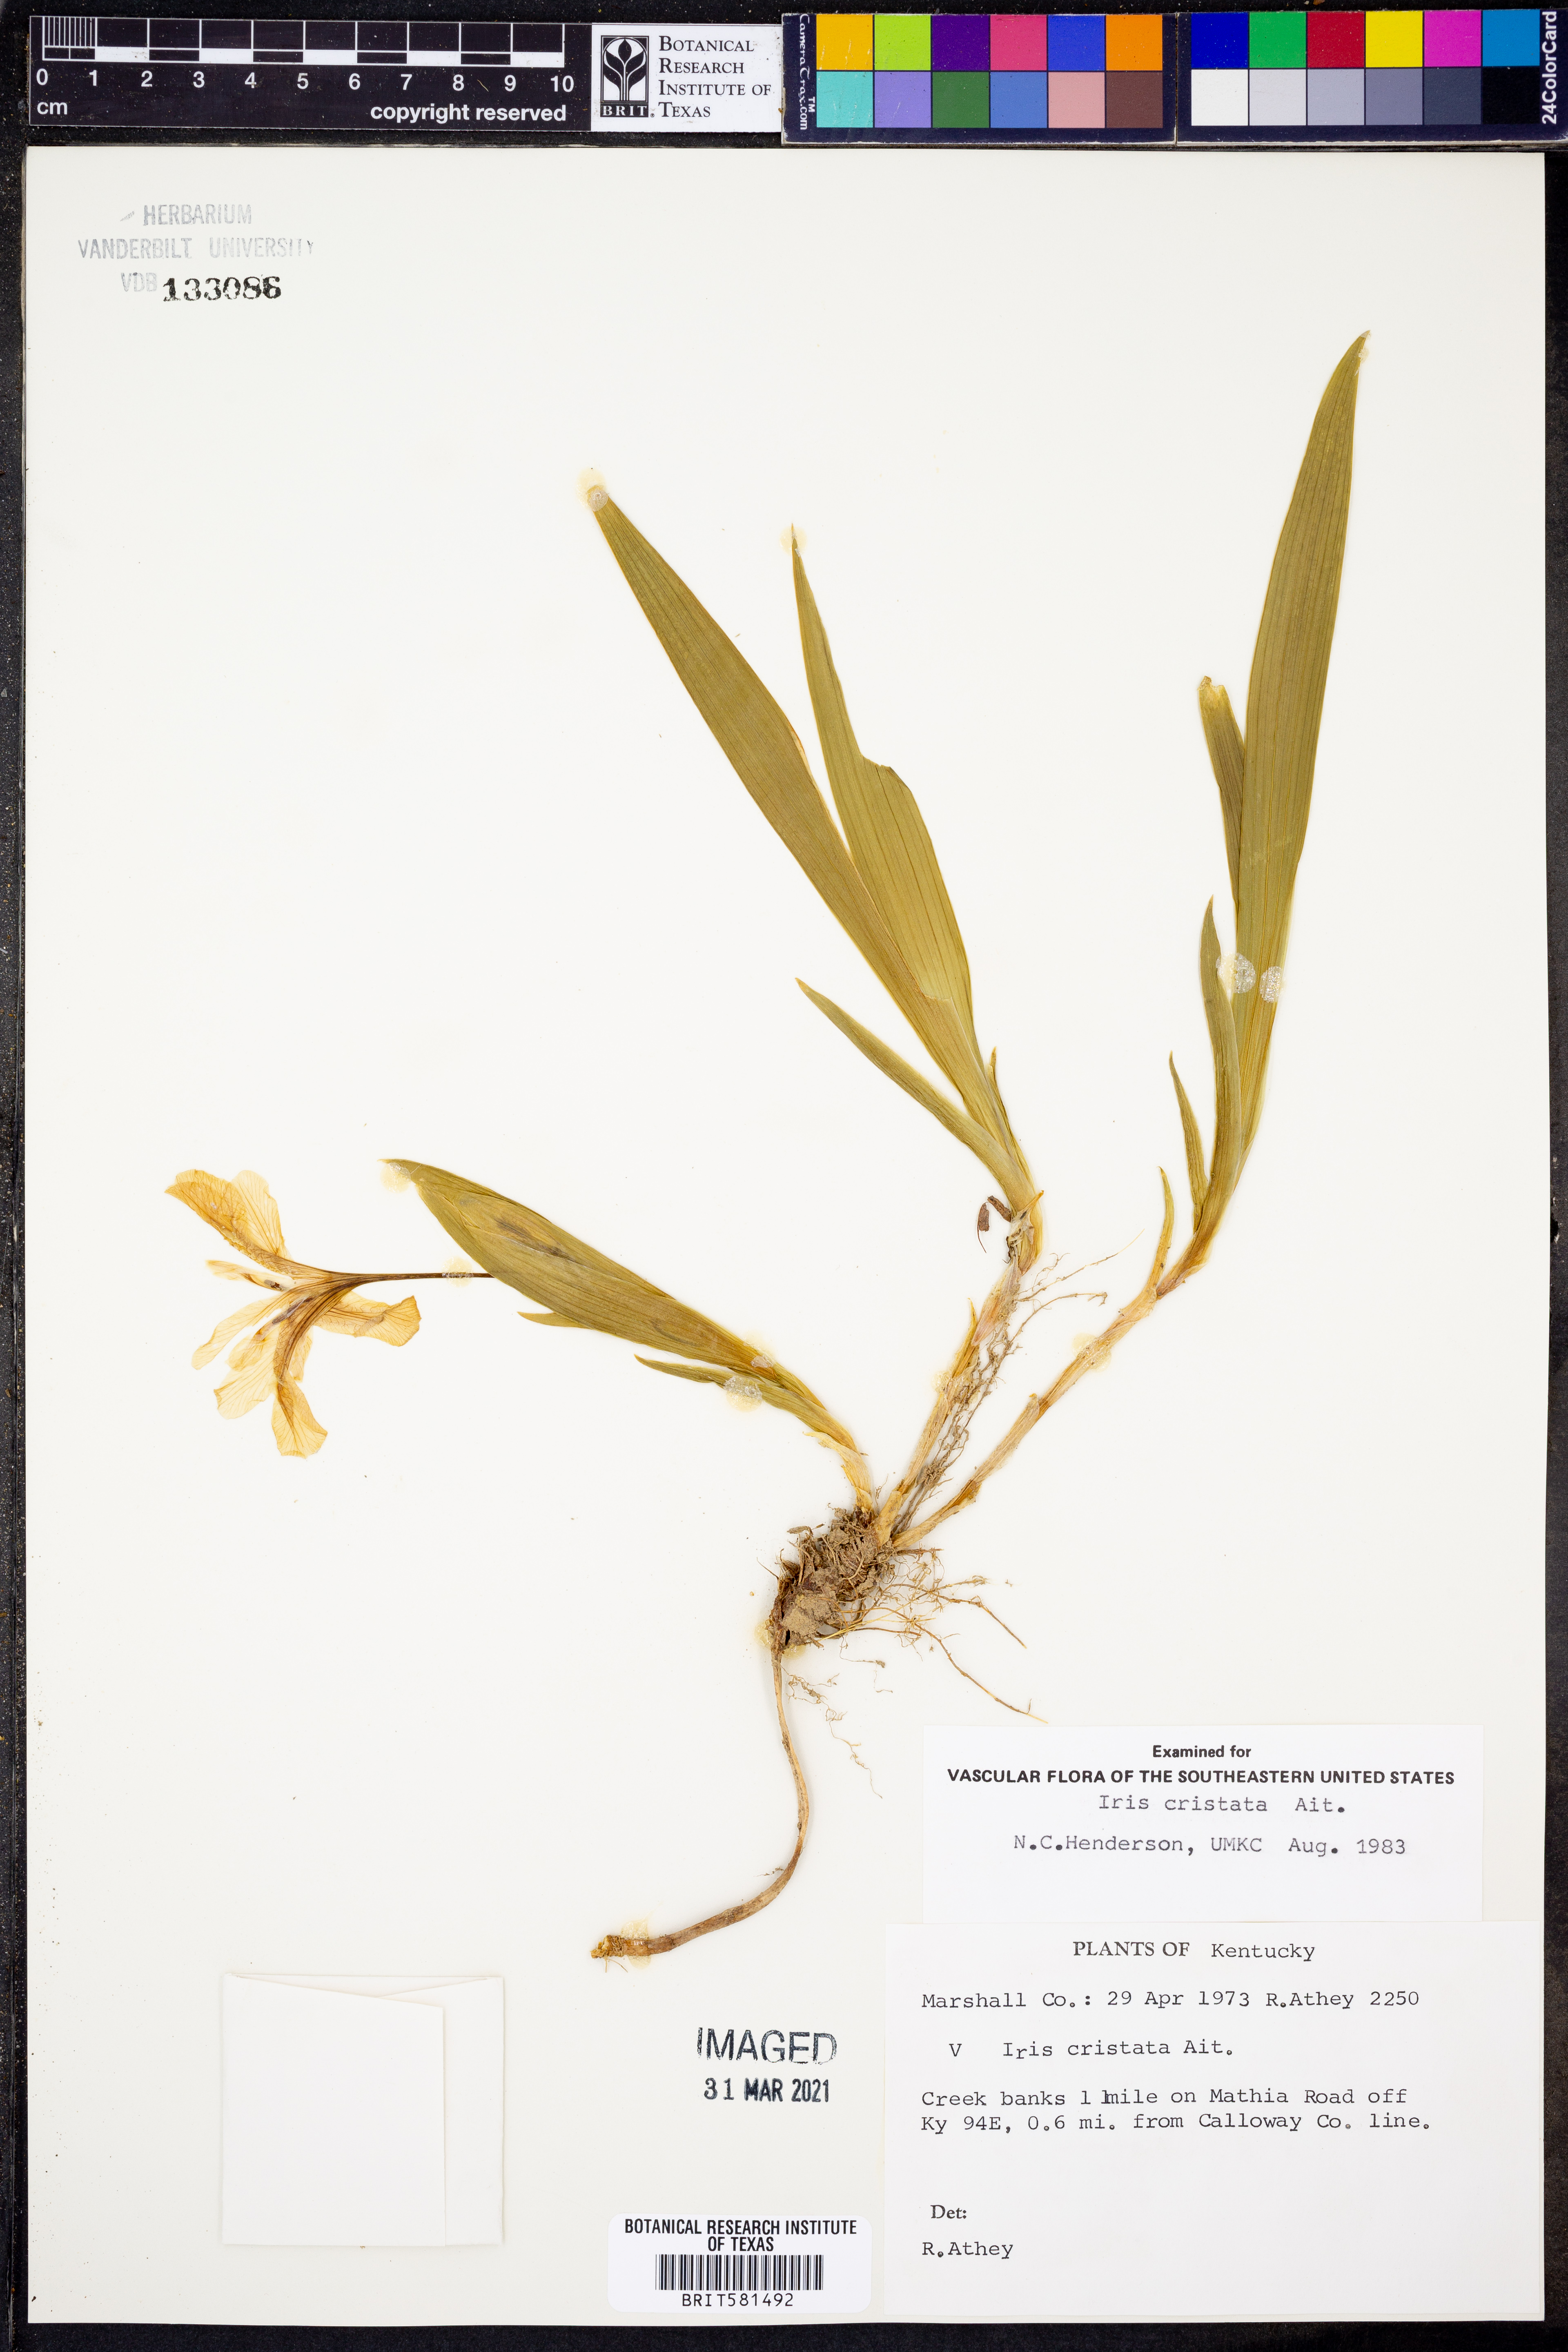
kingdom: Plantae
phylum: Tracheophyta
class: Liliopsida
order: Asparagales
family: Iridaceae
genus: Iris
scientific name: Iris cristata
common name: Crested iris
